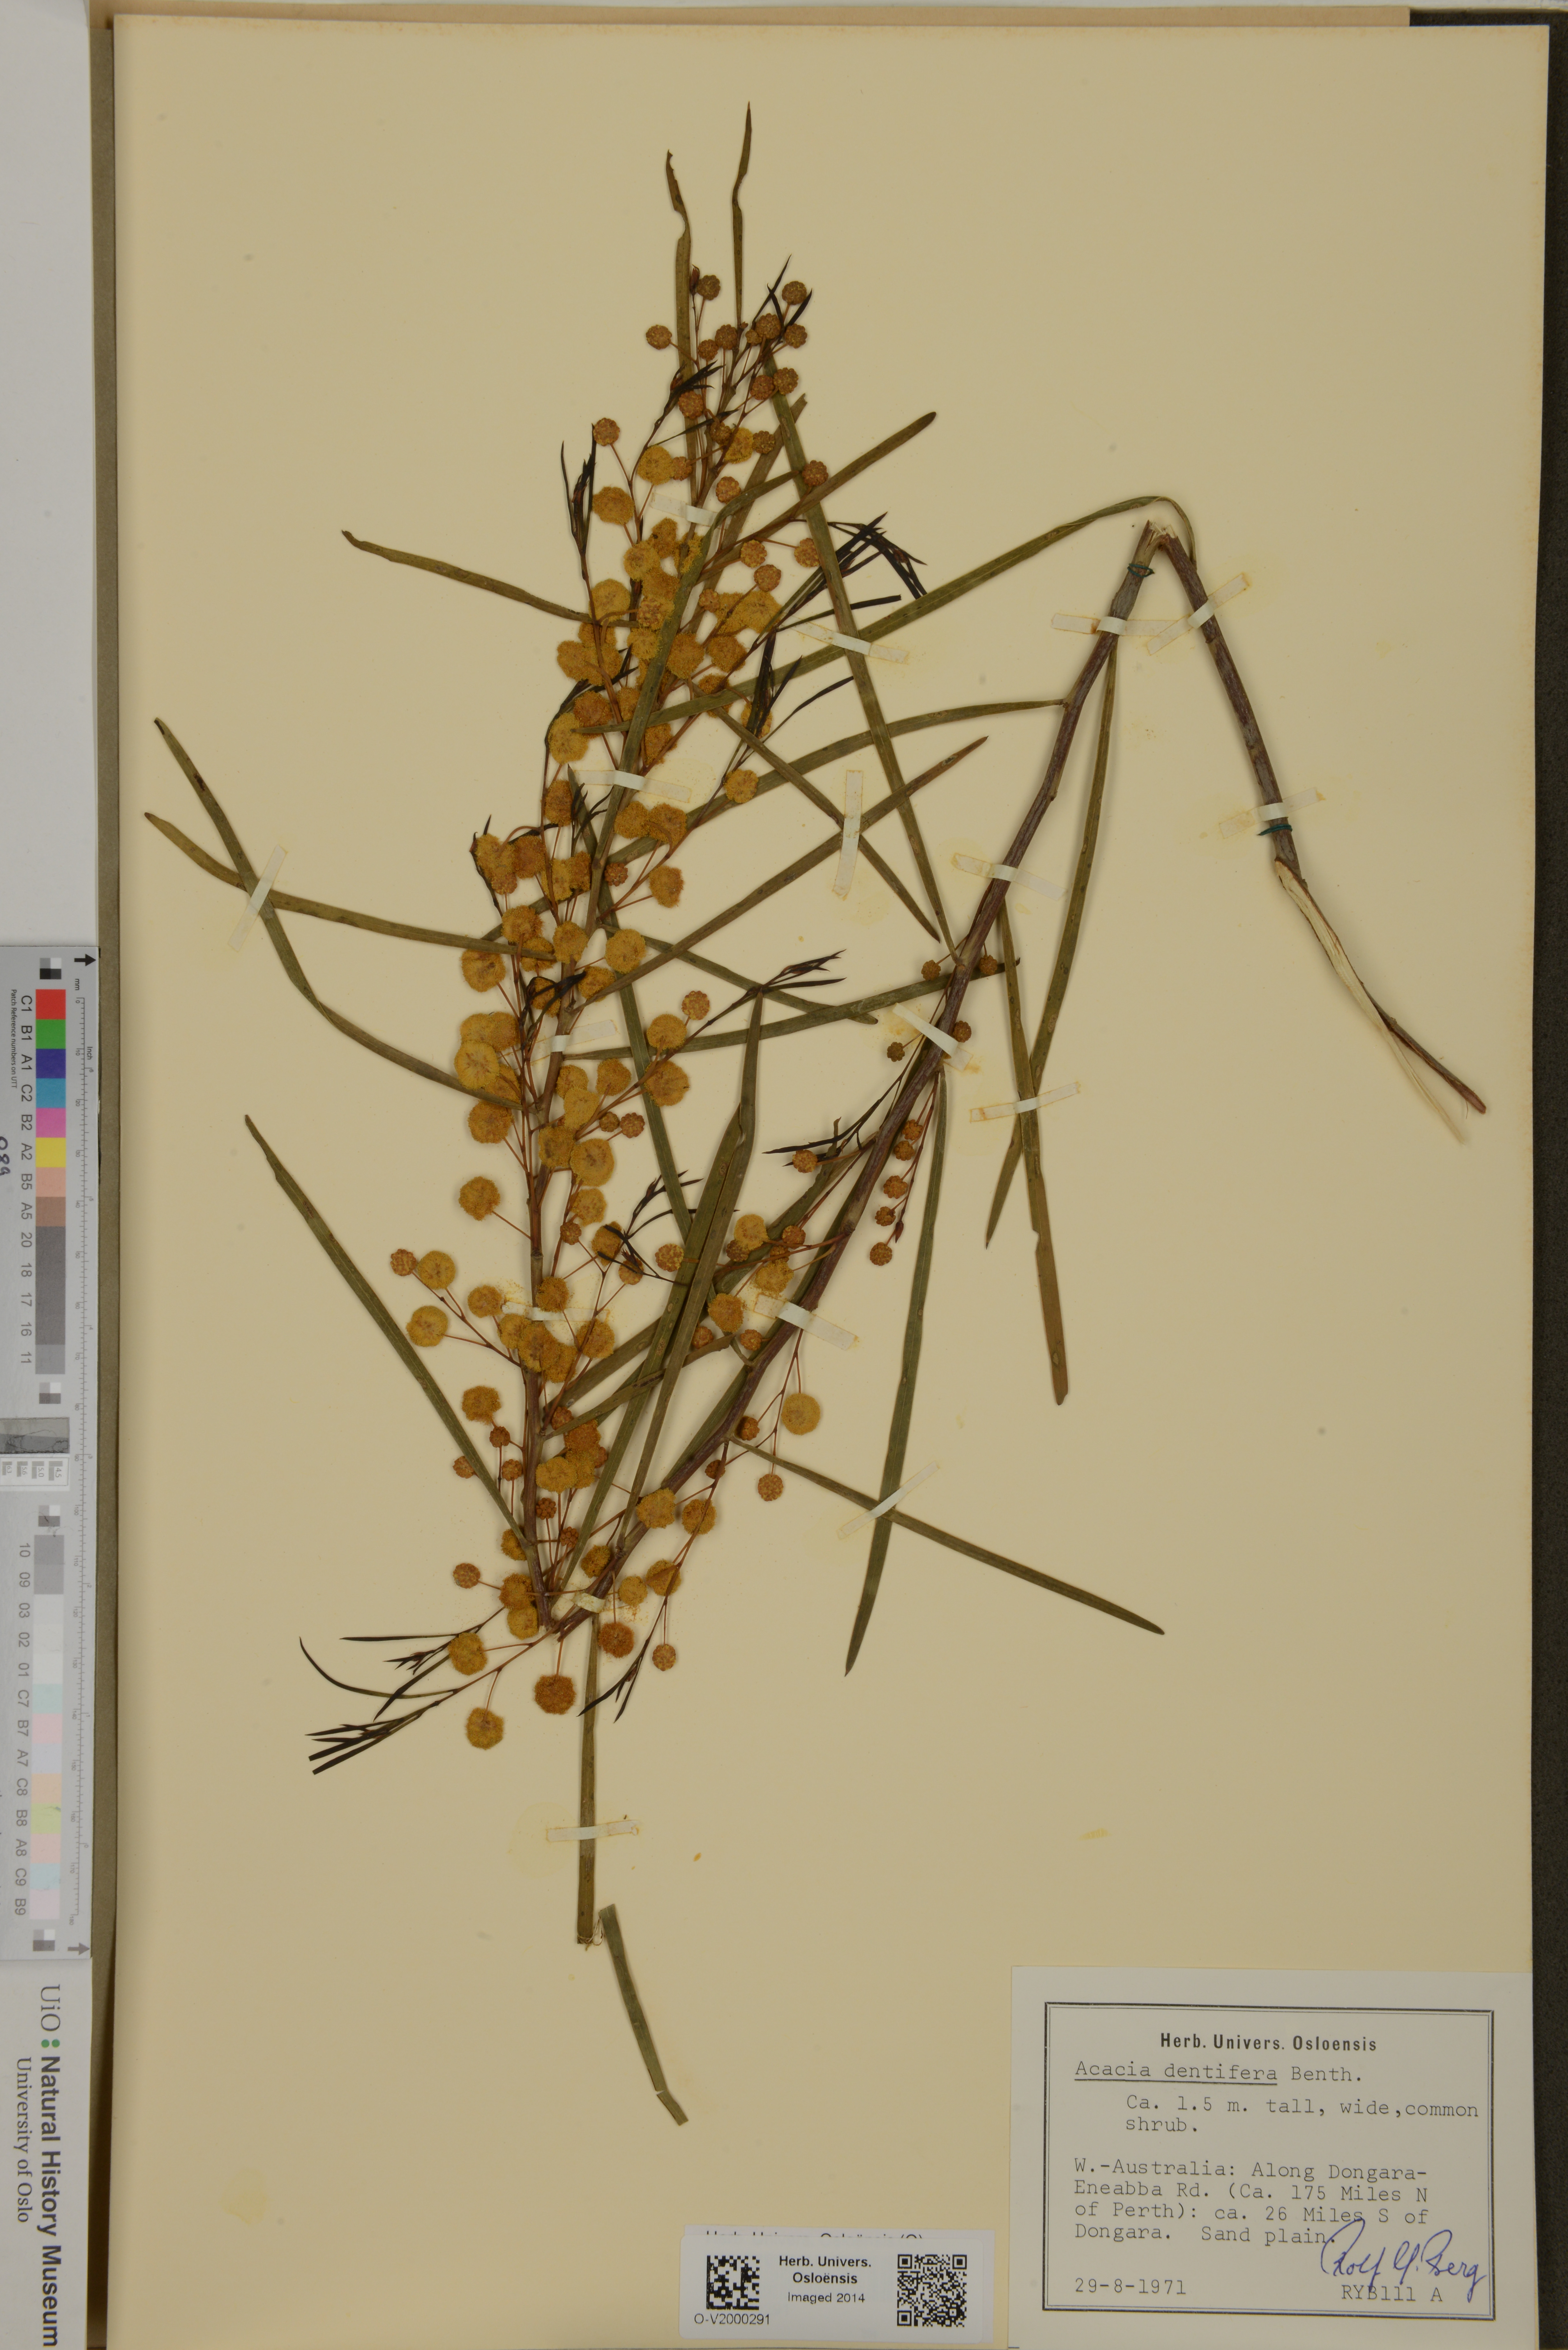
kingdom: Plantae
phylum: Tracheophyta
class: Magnoliopsida
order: Fabales
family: Fabaceae
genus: Acacia
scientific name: Acacia dentifera
